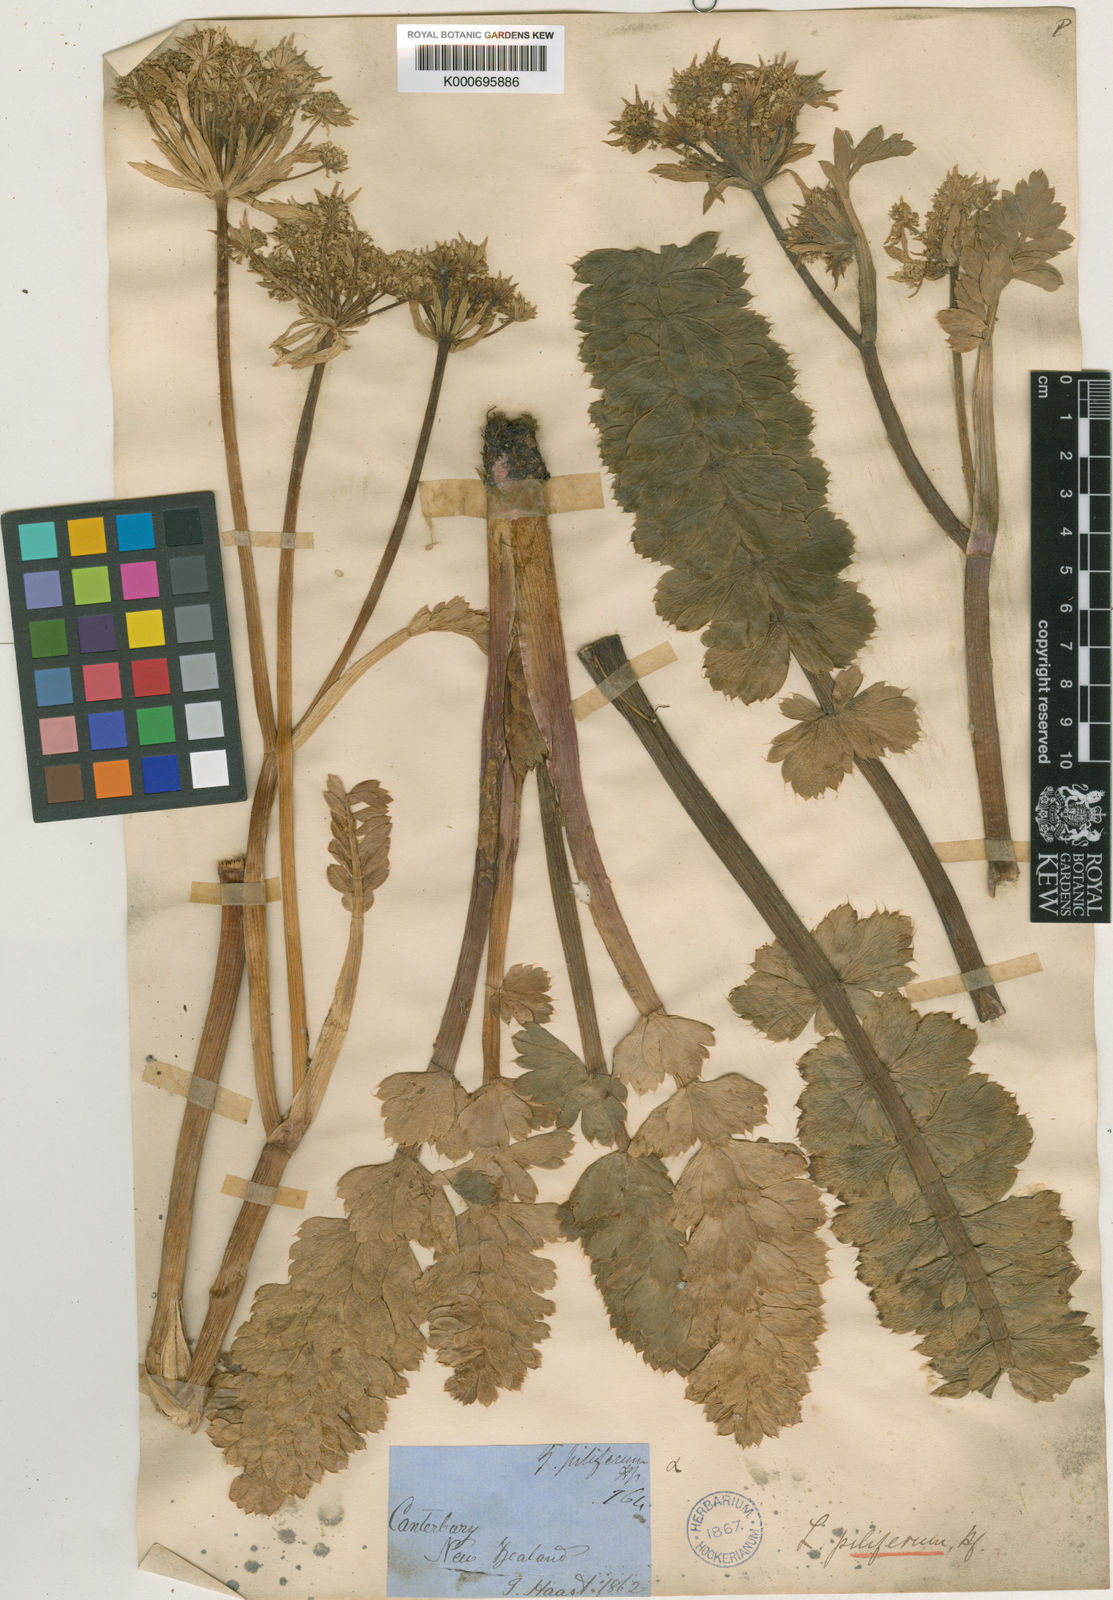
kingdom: Plantae
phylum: Tracheophyta
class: Magnoliopsida
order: Apiales
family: Apiaceae
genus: Anisotome
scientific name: Anisotome pilifera
